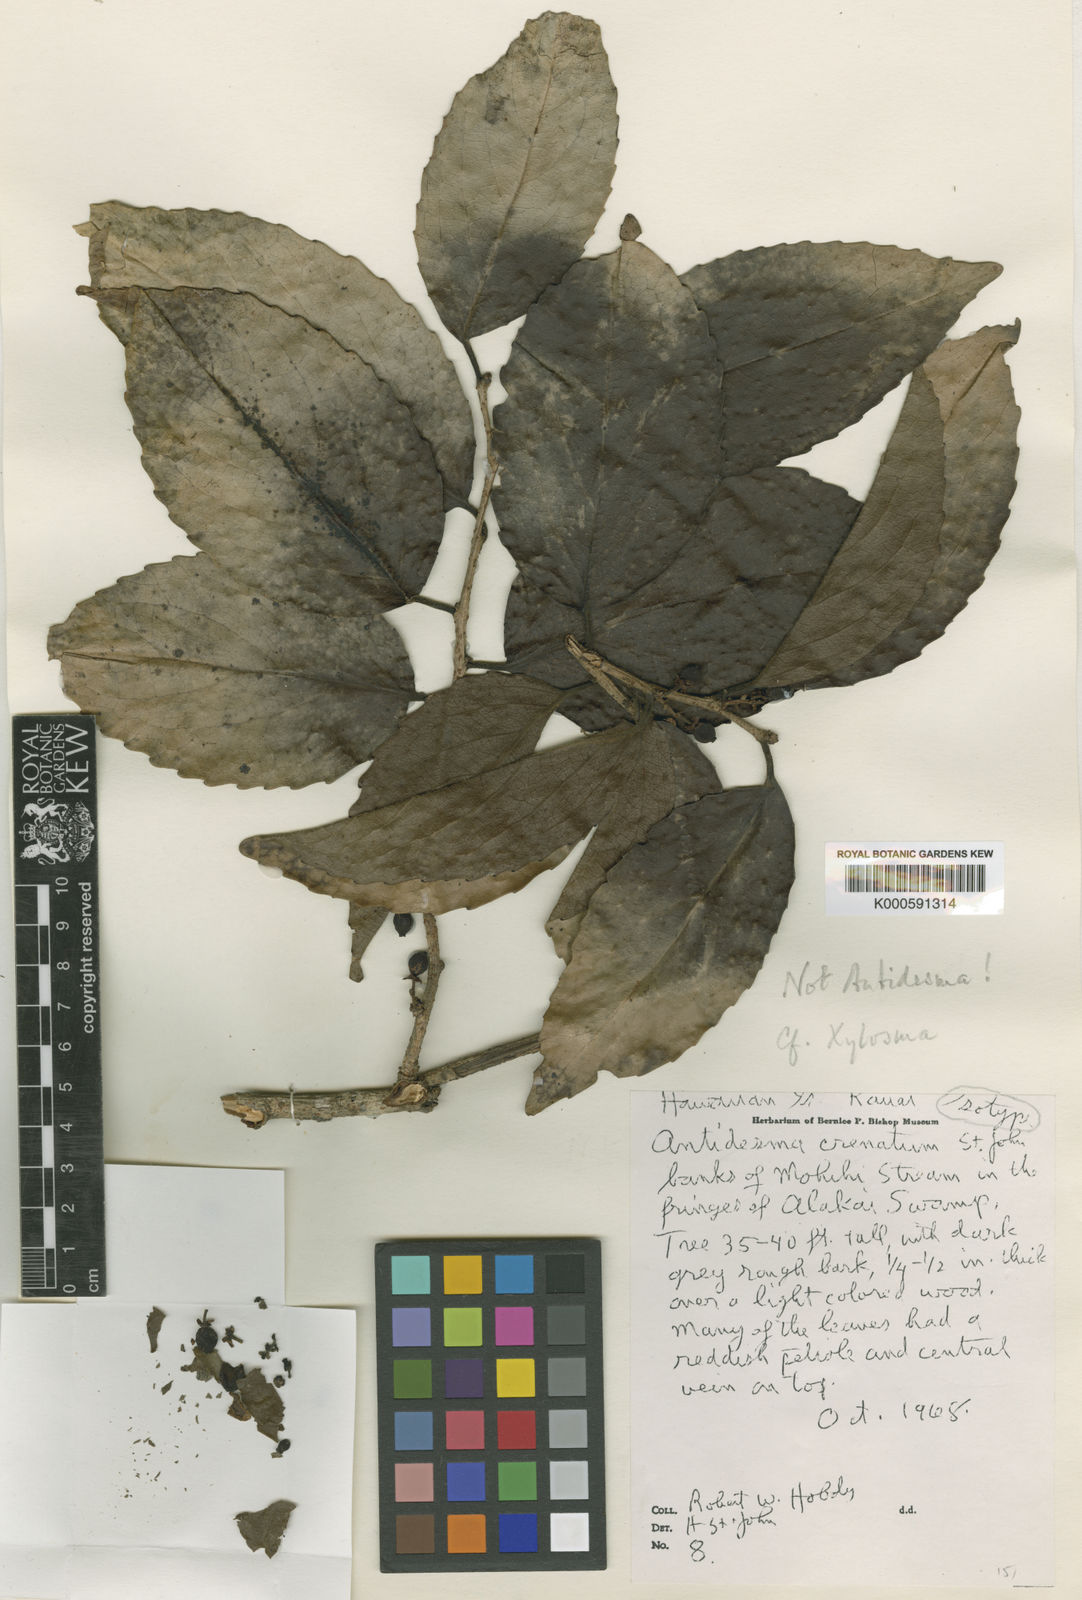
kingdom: Plantae
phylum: Tracheophyta
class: Magnoliopsida
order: Malpighiales
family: Salicaceae
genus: Xylosma
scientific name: Xylosma crenata
